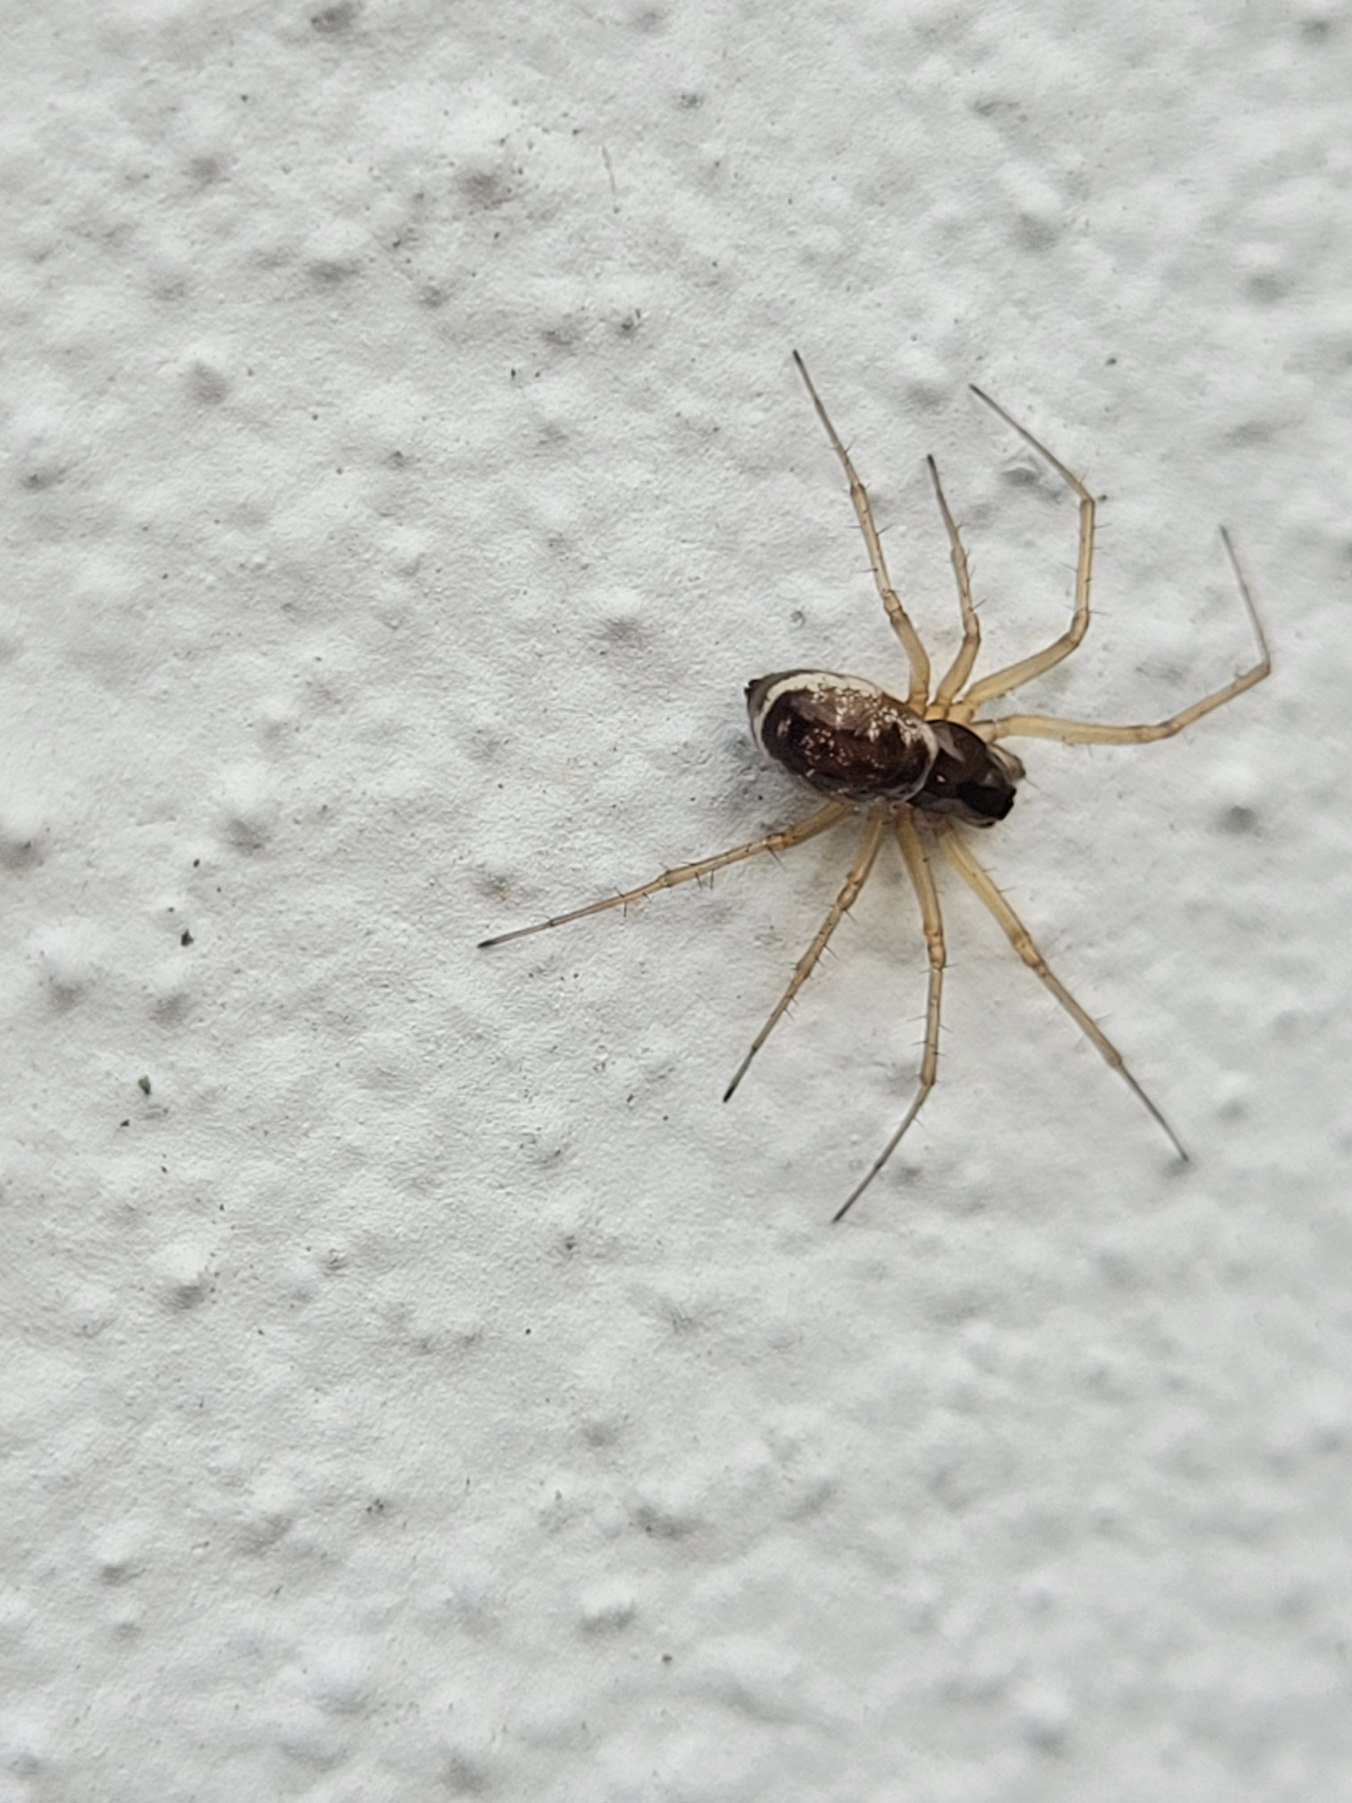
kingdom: Animalia
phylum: Arthropoda
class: Arachnida
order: Araneae
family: Linyphiidae
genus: Linyphia
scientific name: Linyphia hortensis
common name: Skovbaldakinspinder
